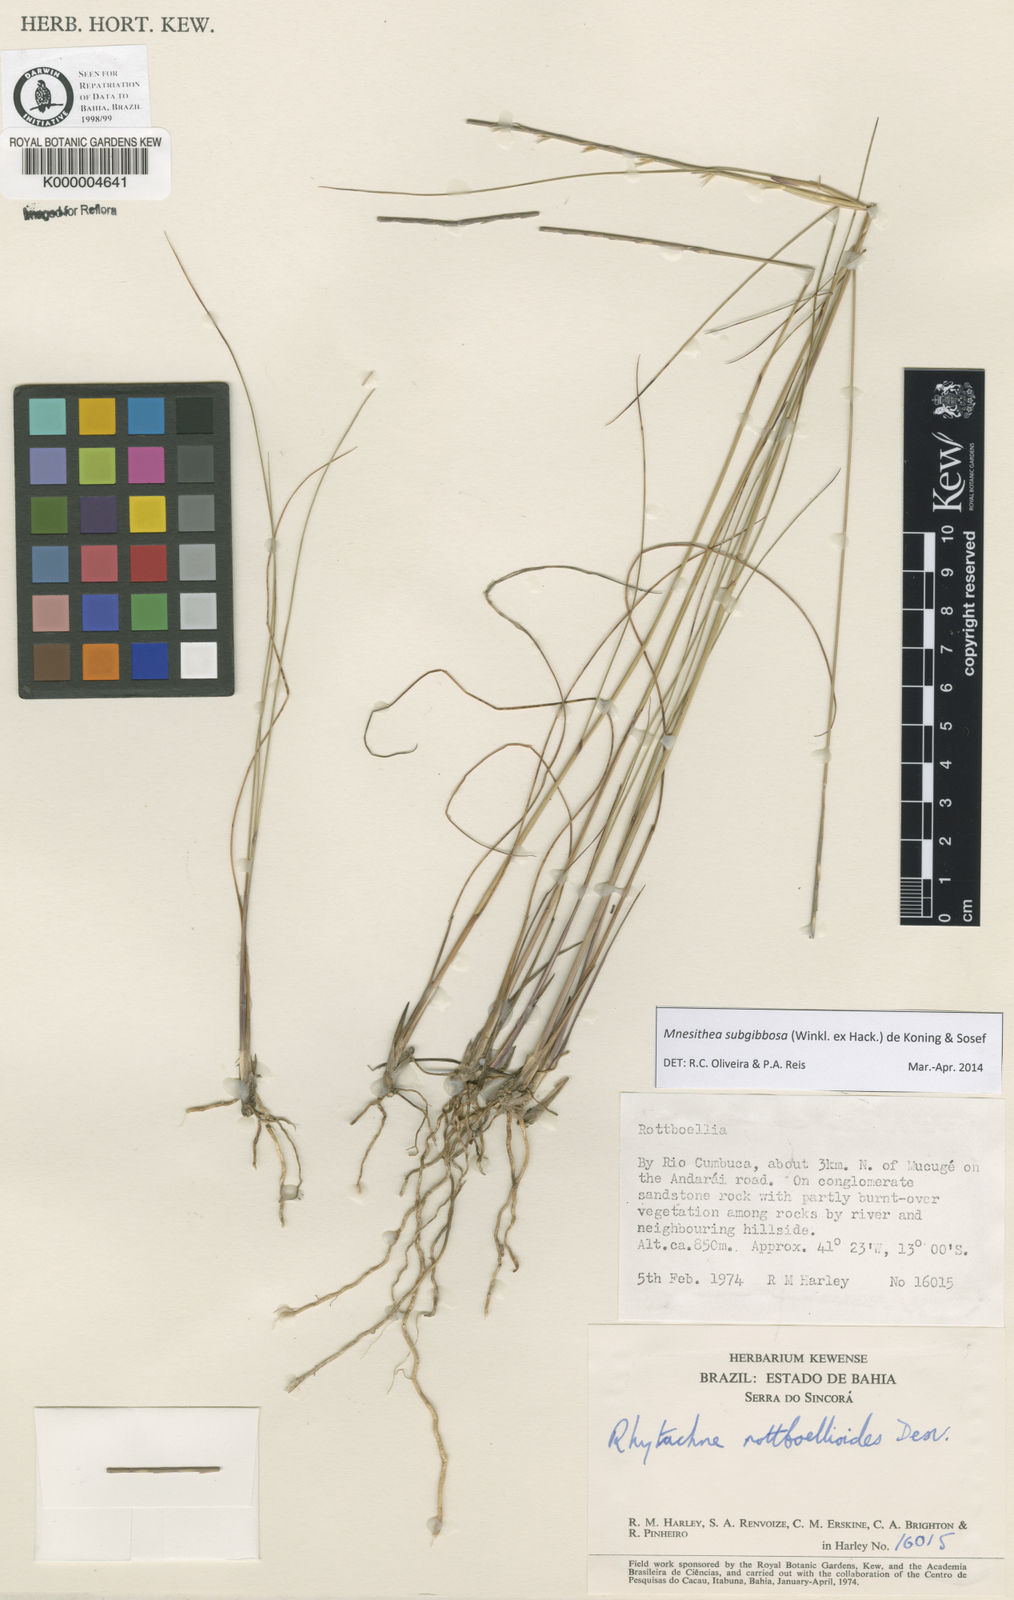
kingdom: Plantae
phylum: Tracheophyta
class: Liliopsida
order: Poales
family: Poaceae
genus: Rhytachne
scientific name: Rhytachne subgibbosa
